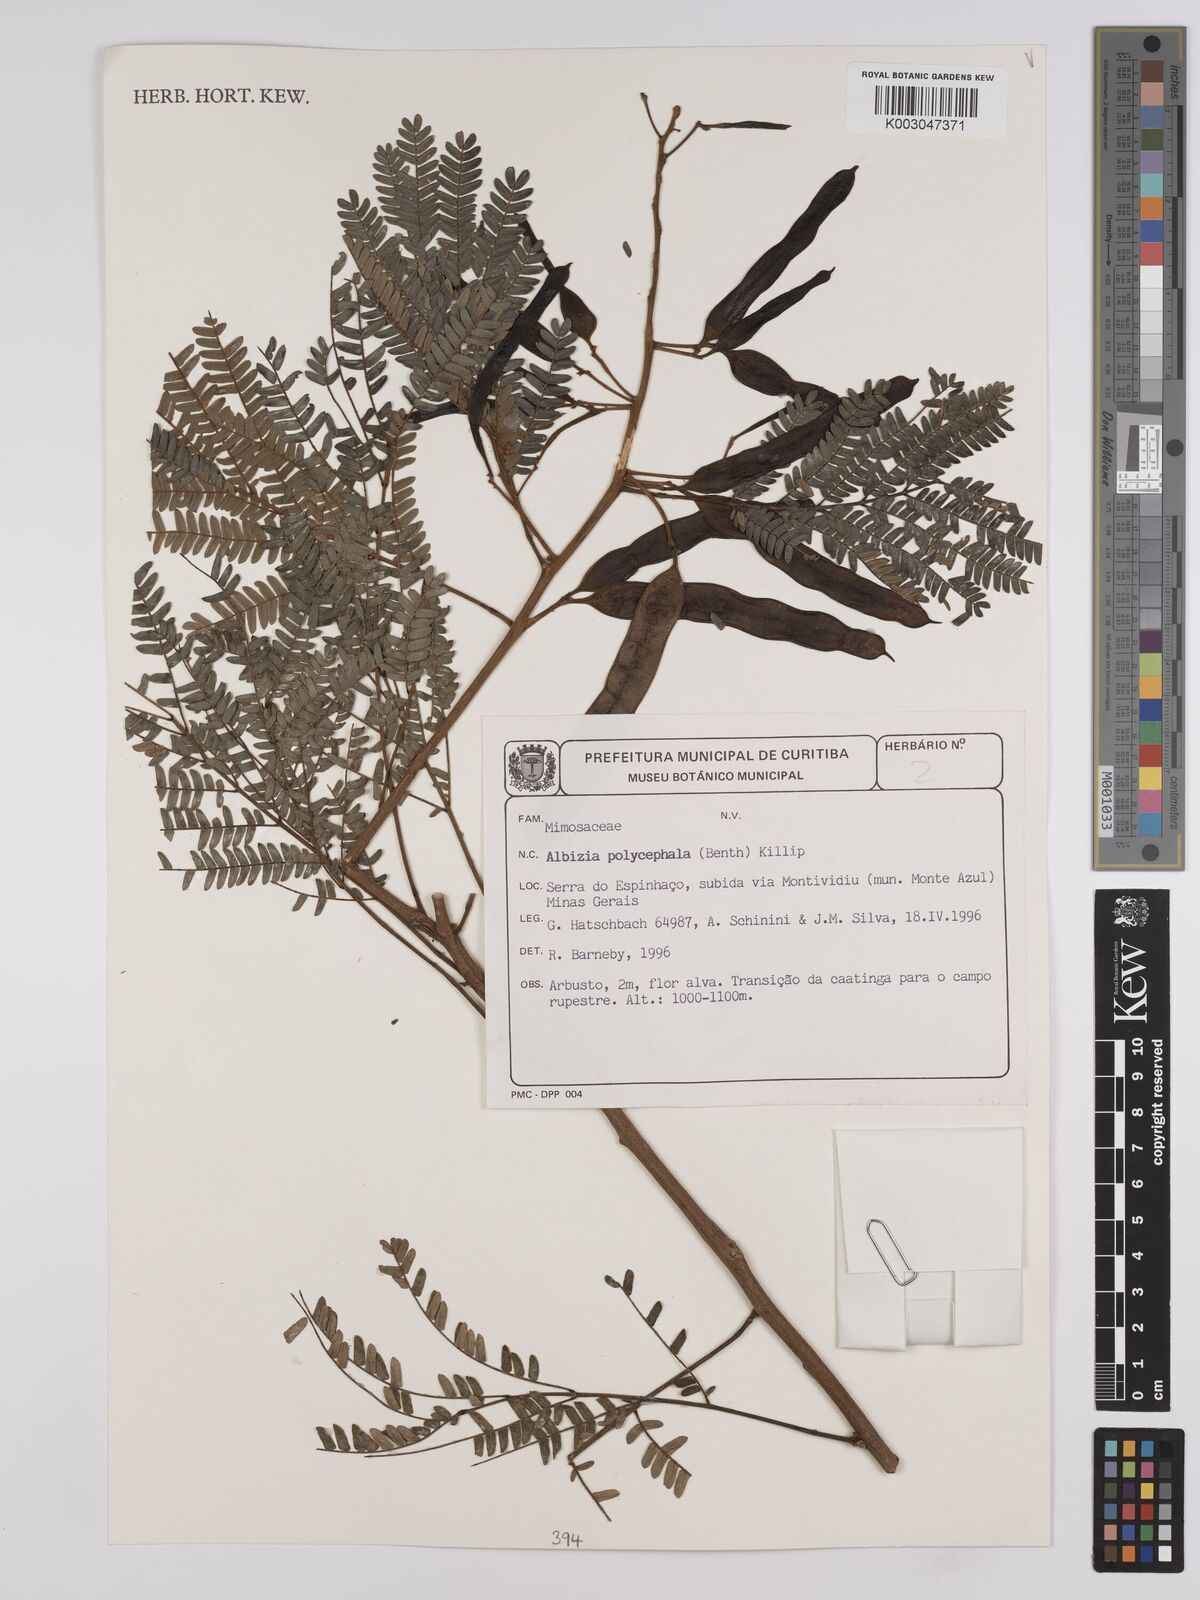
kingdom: Plantae
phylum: Tracheophyta
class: Magnoliopsida
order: Fabales
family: Fabaceae
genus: Albizia
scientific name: Albizia polycephala
